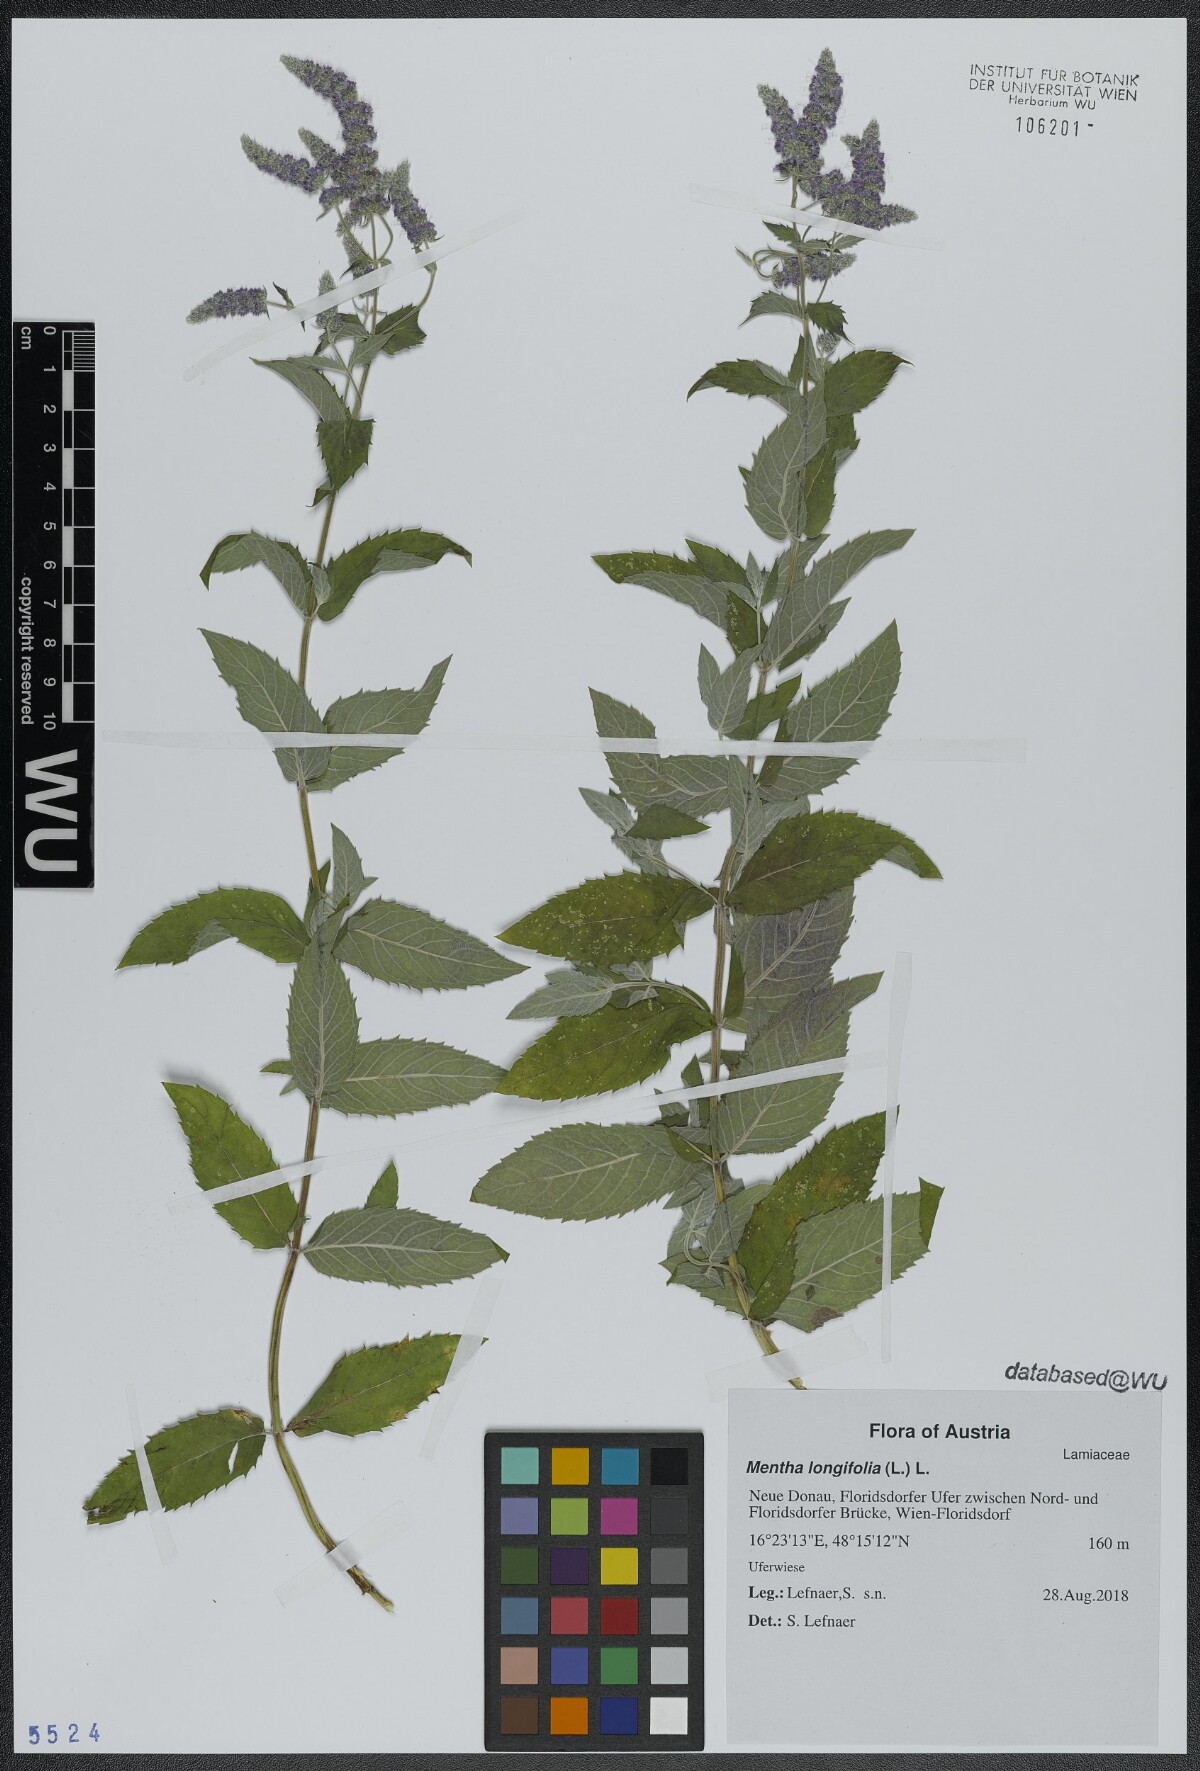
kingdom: Plantae
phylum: Tracheophyta
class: Magnoliopsida
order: Lamiales
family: Lamiaceae
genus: Mentha
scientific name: Mentha longifolia
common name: Horse mint
